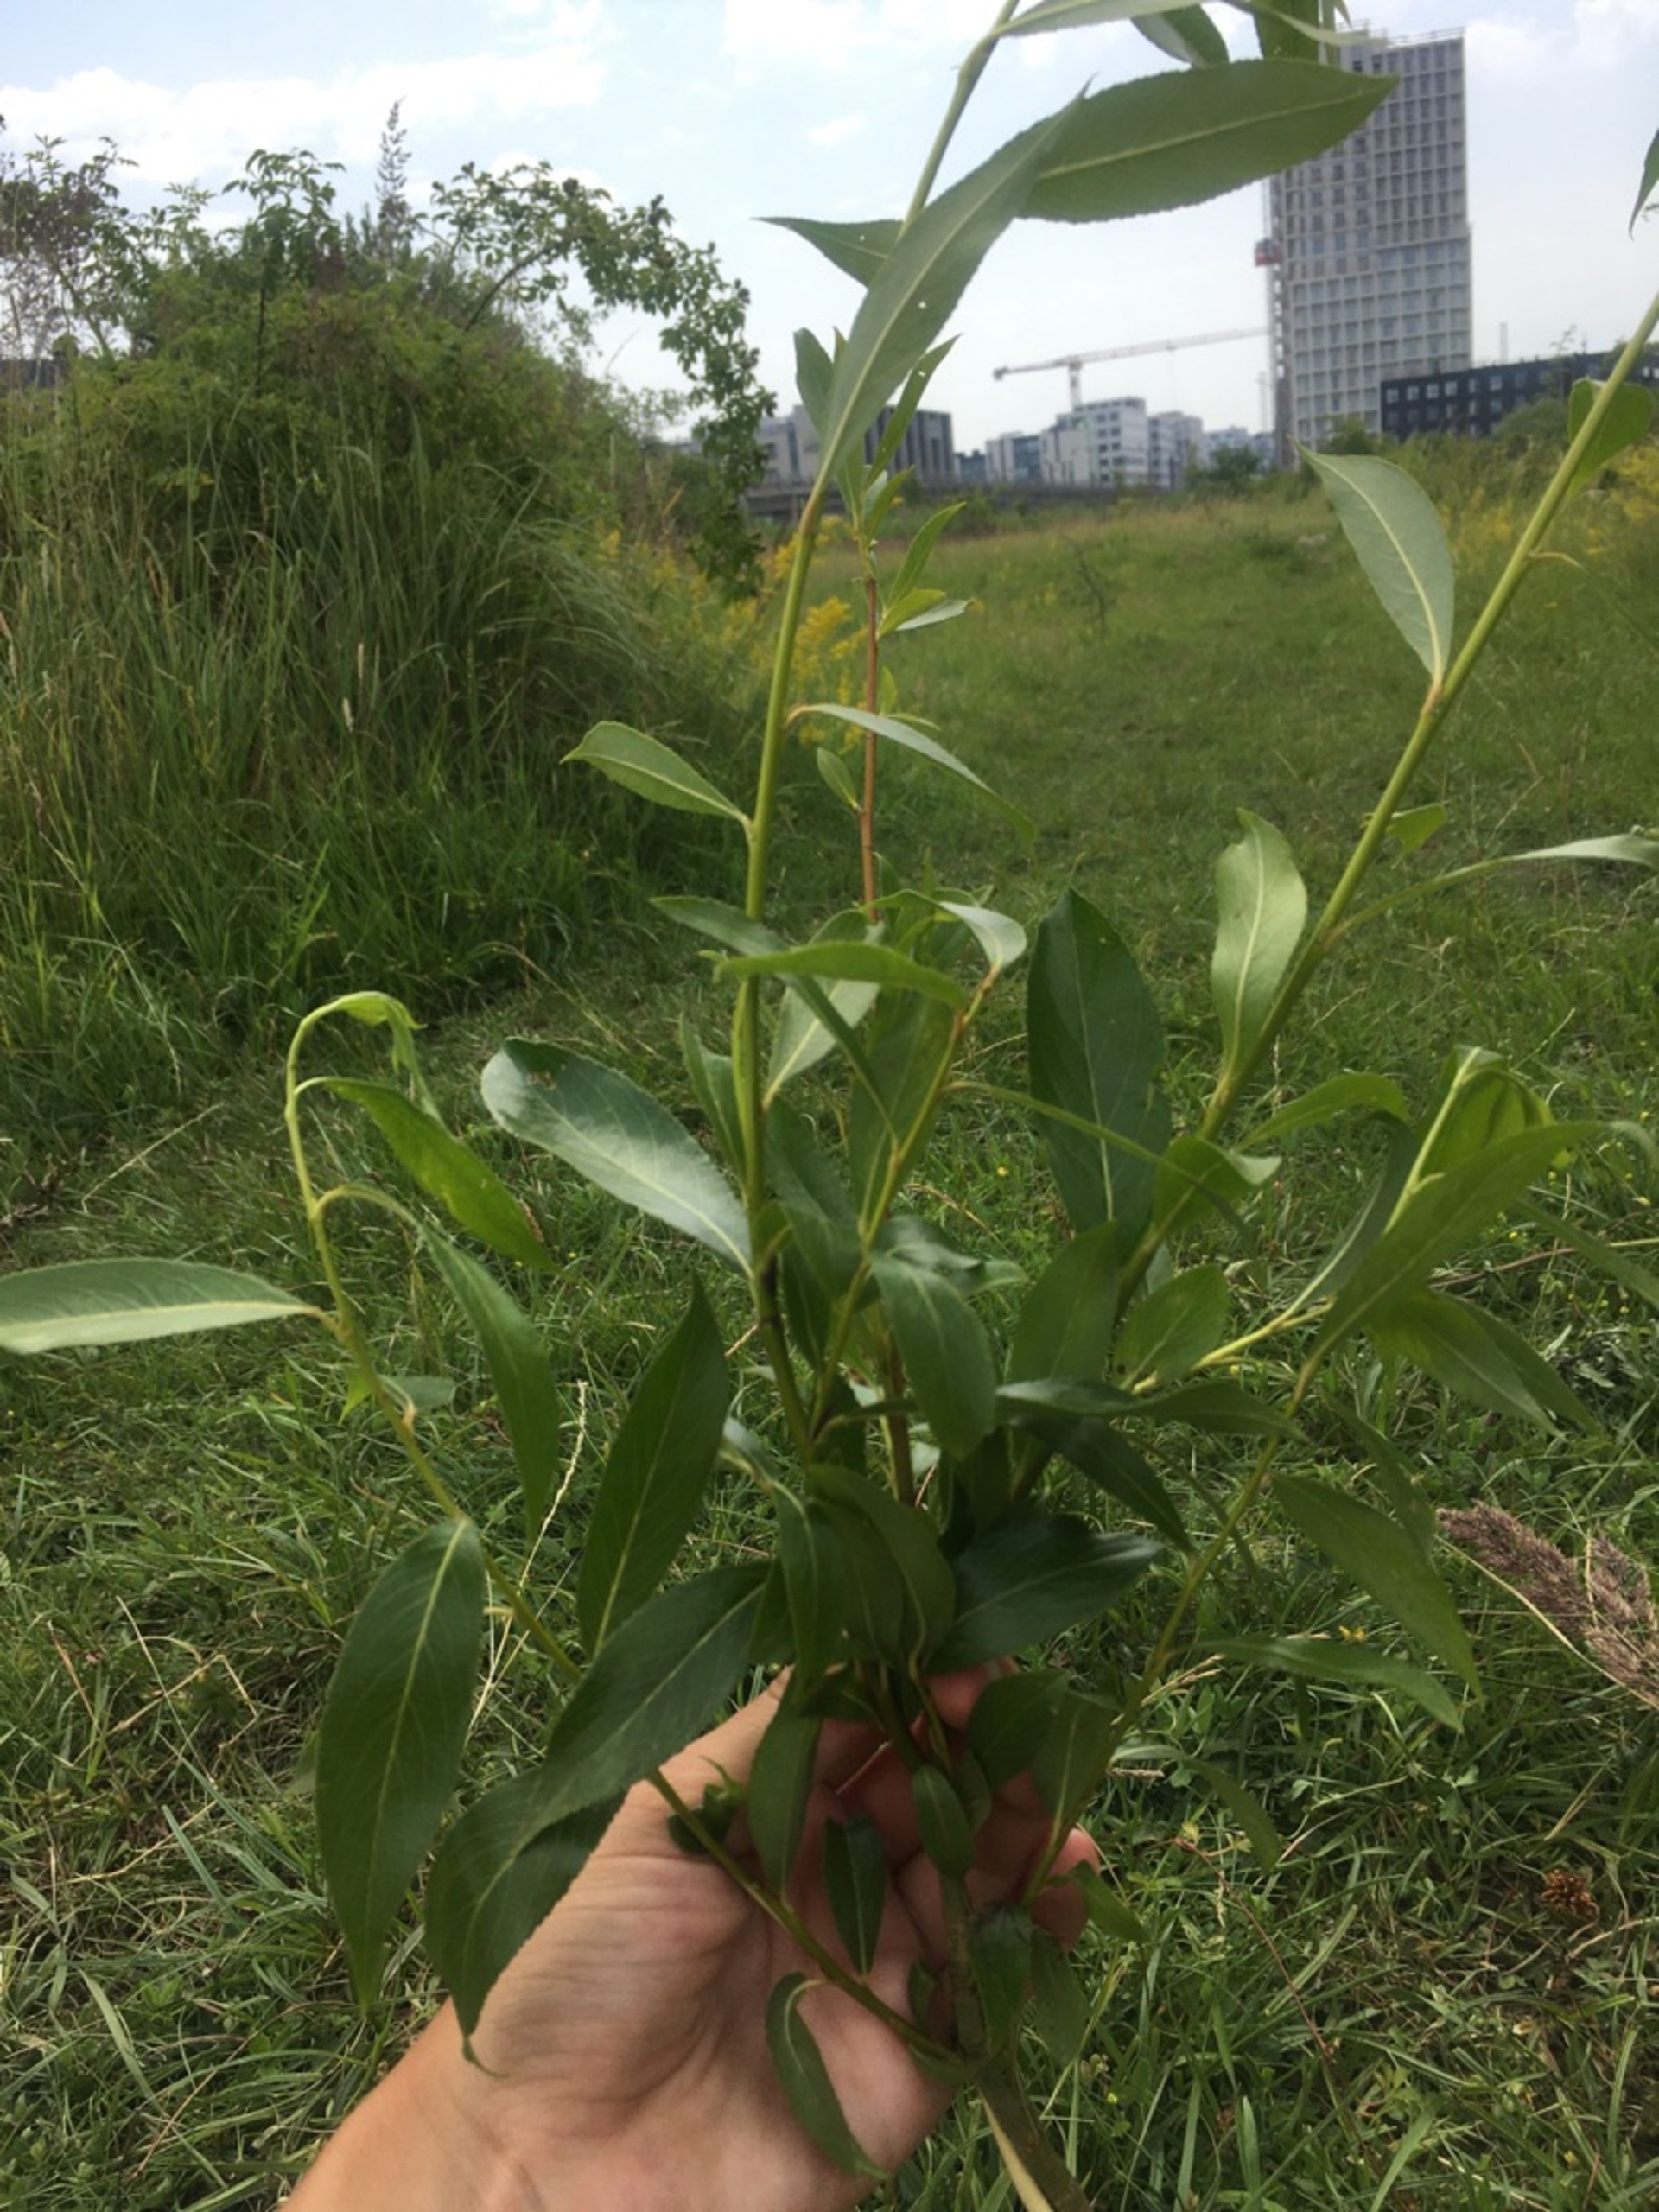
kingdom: Plantae
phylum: Tracheophyta
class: Magnoliopsida
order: Malpighiales
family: Salicaceae
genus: Salix
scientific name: Salix meyeriana
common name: Glans-pil
